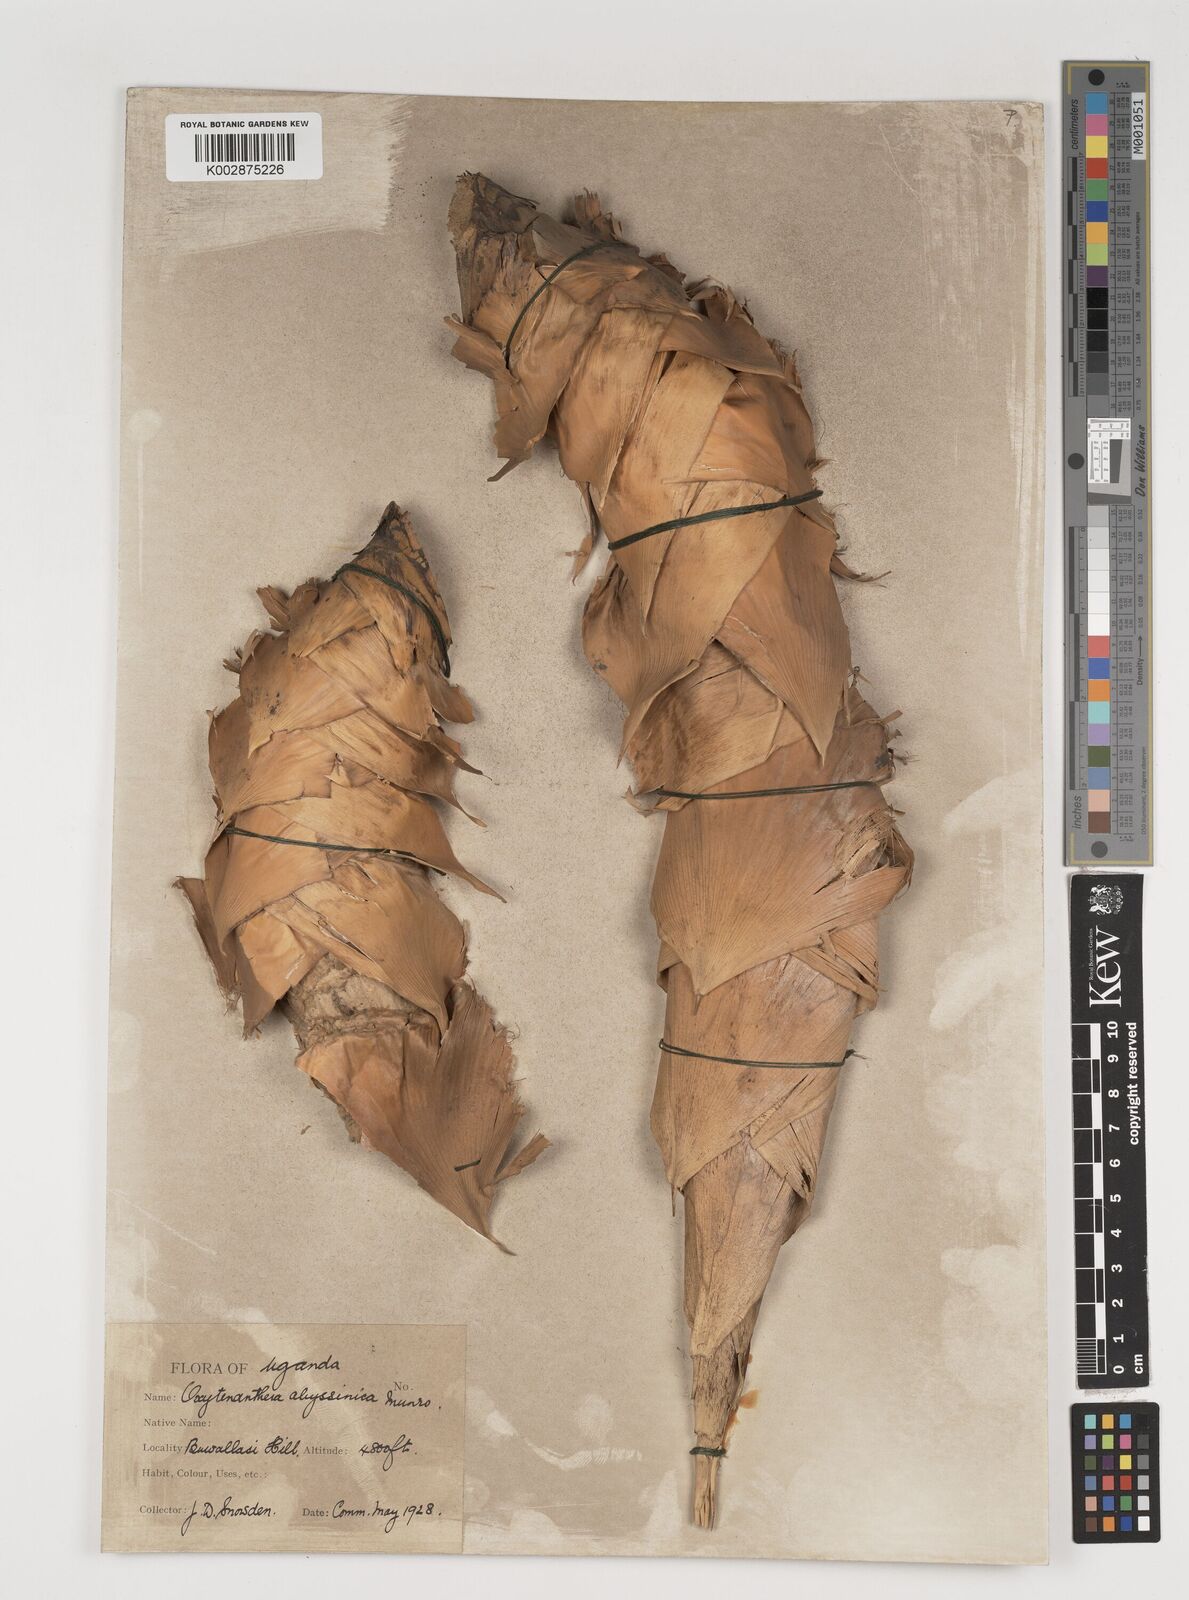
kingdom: Plantae
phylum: Tracheophyta
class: Liliopsida
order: Poales
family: Poaceae
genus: Oxytenanthera
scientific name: Oxytenanthera abyssinica
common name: Wine bamboo
